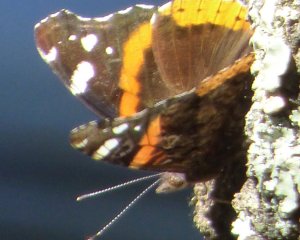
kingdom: Animalia
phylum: Arthropoda
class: Insecta
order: Lepidoptera
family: Nymphalidae
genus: Vanessa
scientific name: Vanessa atalanta
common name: Red Admiral
